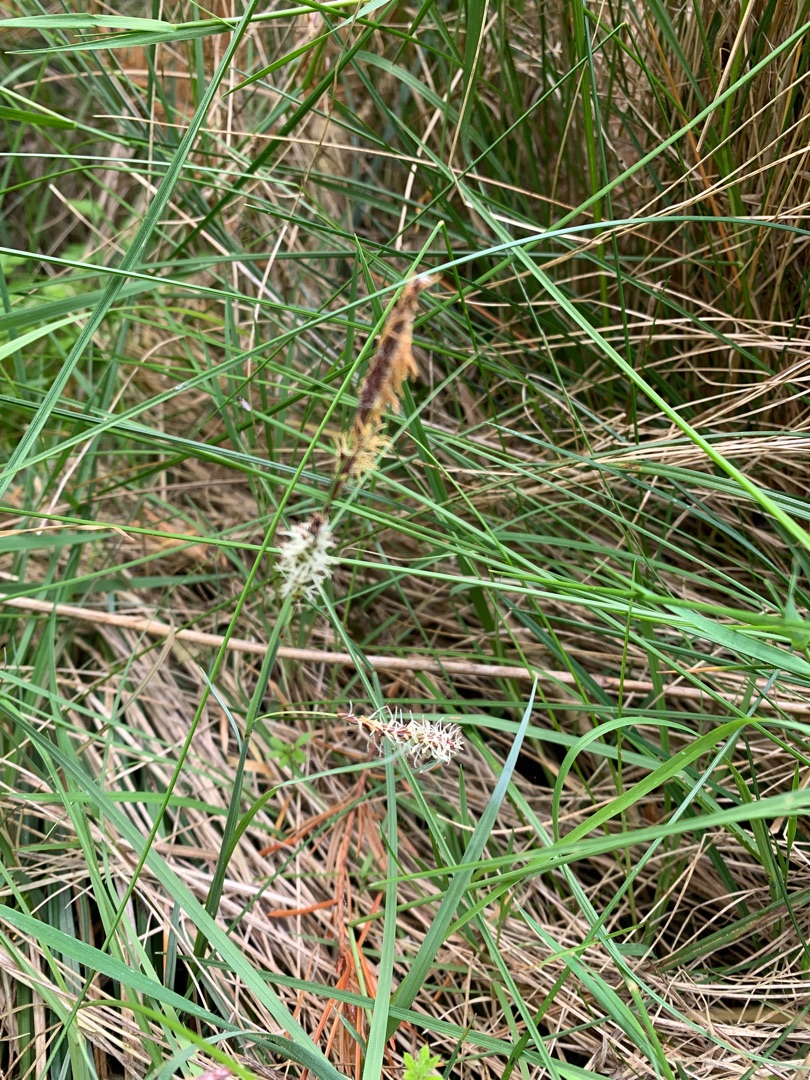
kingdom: Plantae
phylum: Tracheophyta
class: Liliopsida
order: Poales
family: Cyperaceae
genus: Carex
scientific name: Carex flacca
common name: Blågrøn star
